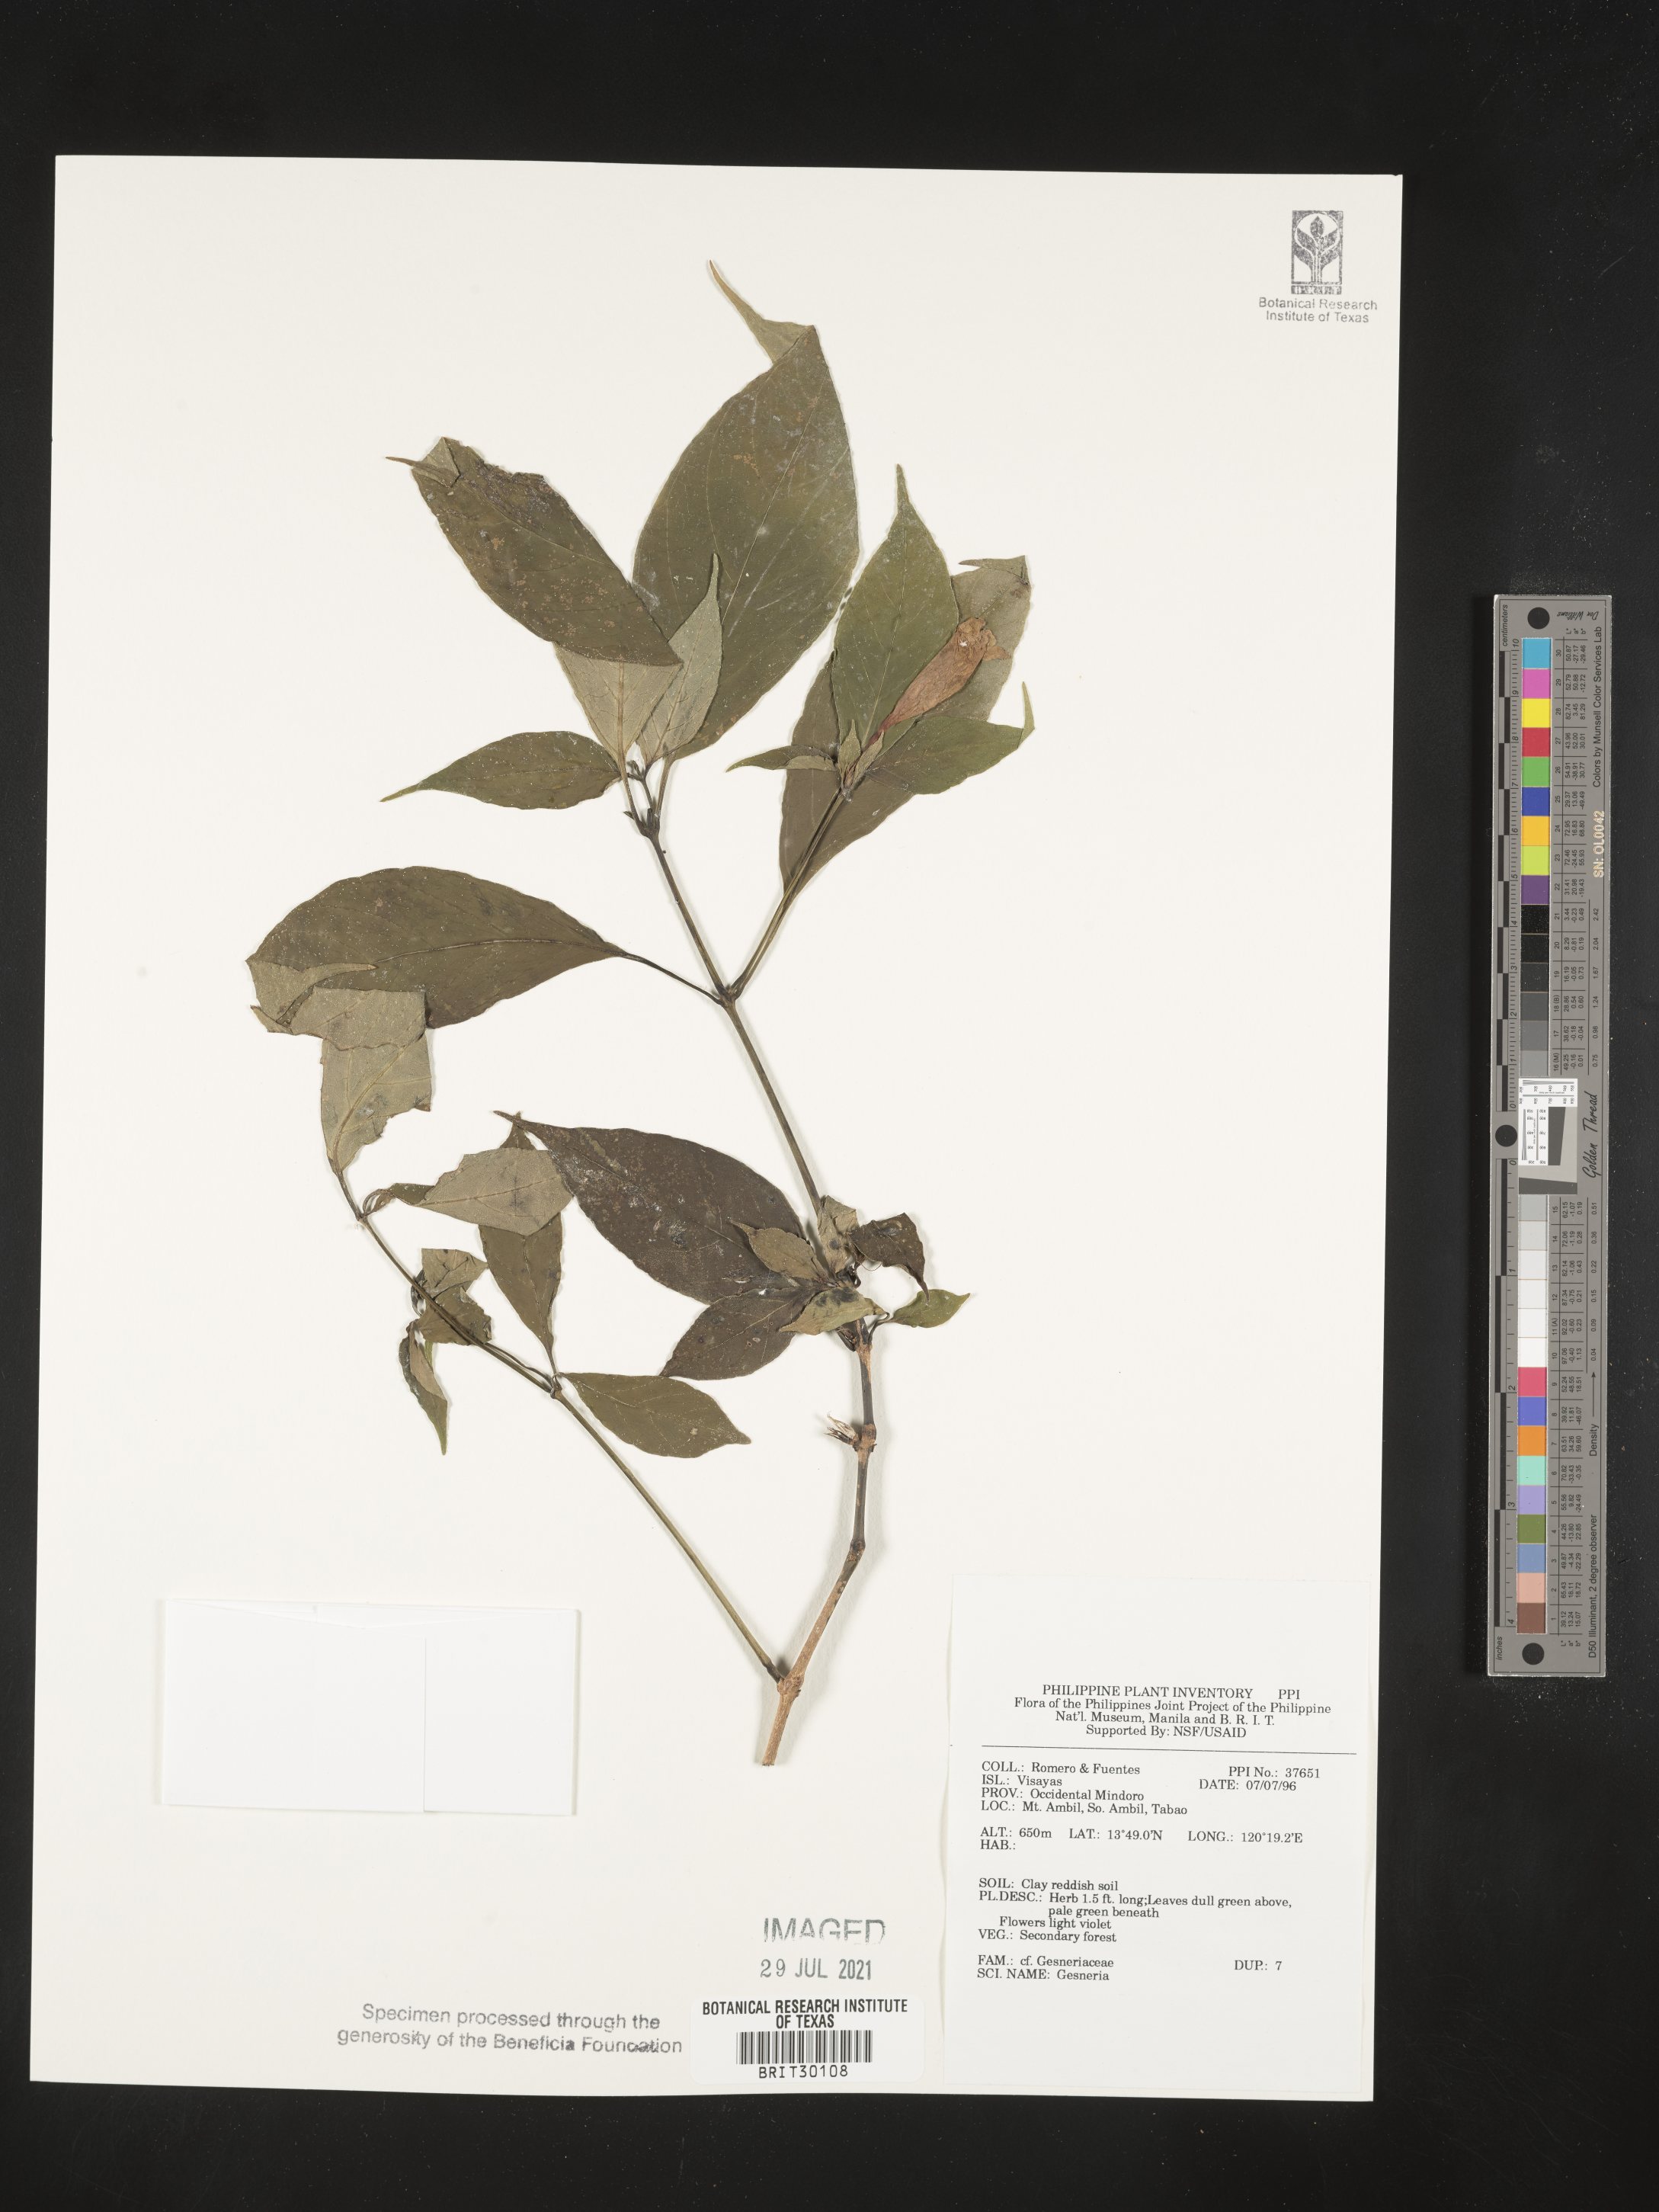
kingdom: Plantae
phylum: Tracheophyta
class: Magnoliopsida
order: Lamiales
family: Gesneriaceae
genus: Gesneria
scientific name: Gesneria
